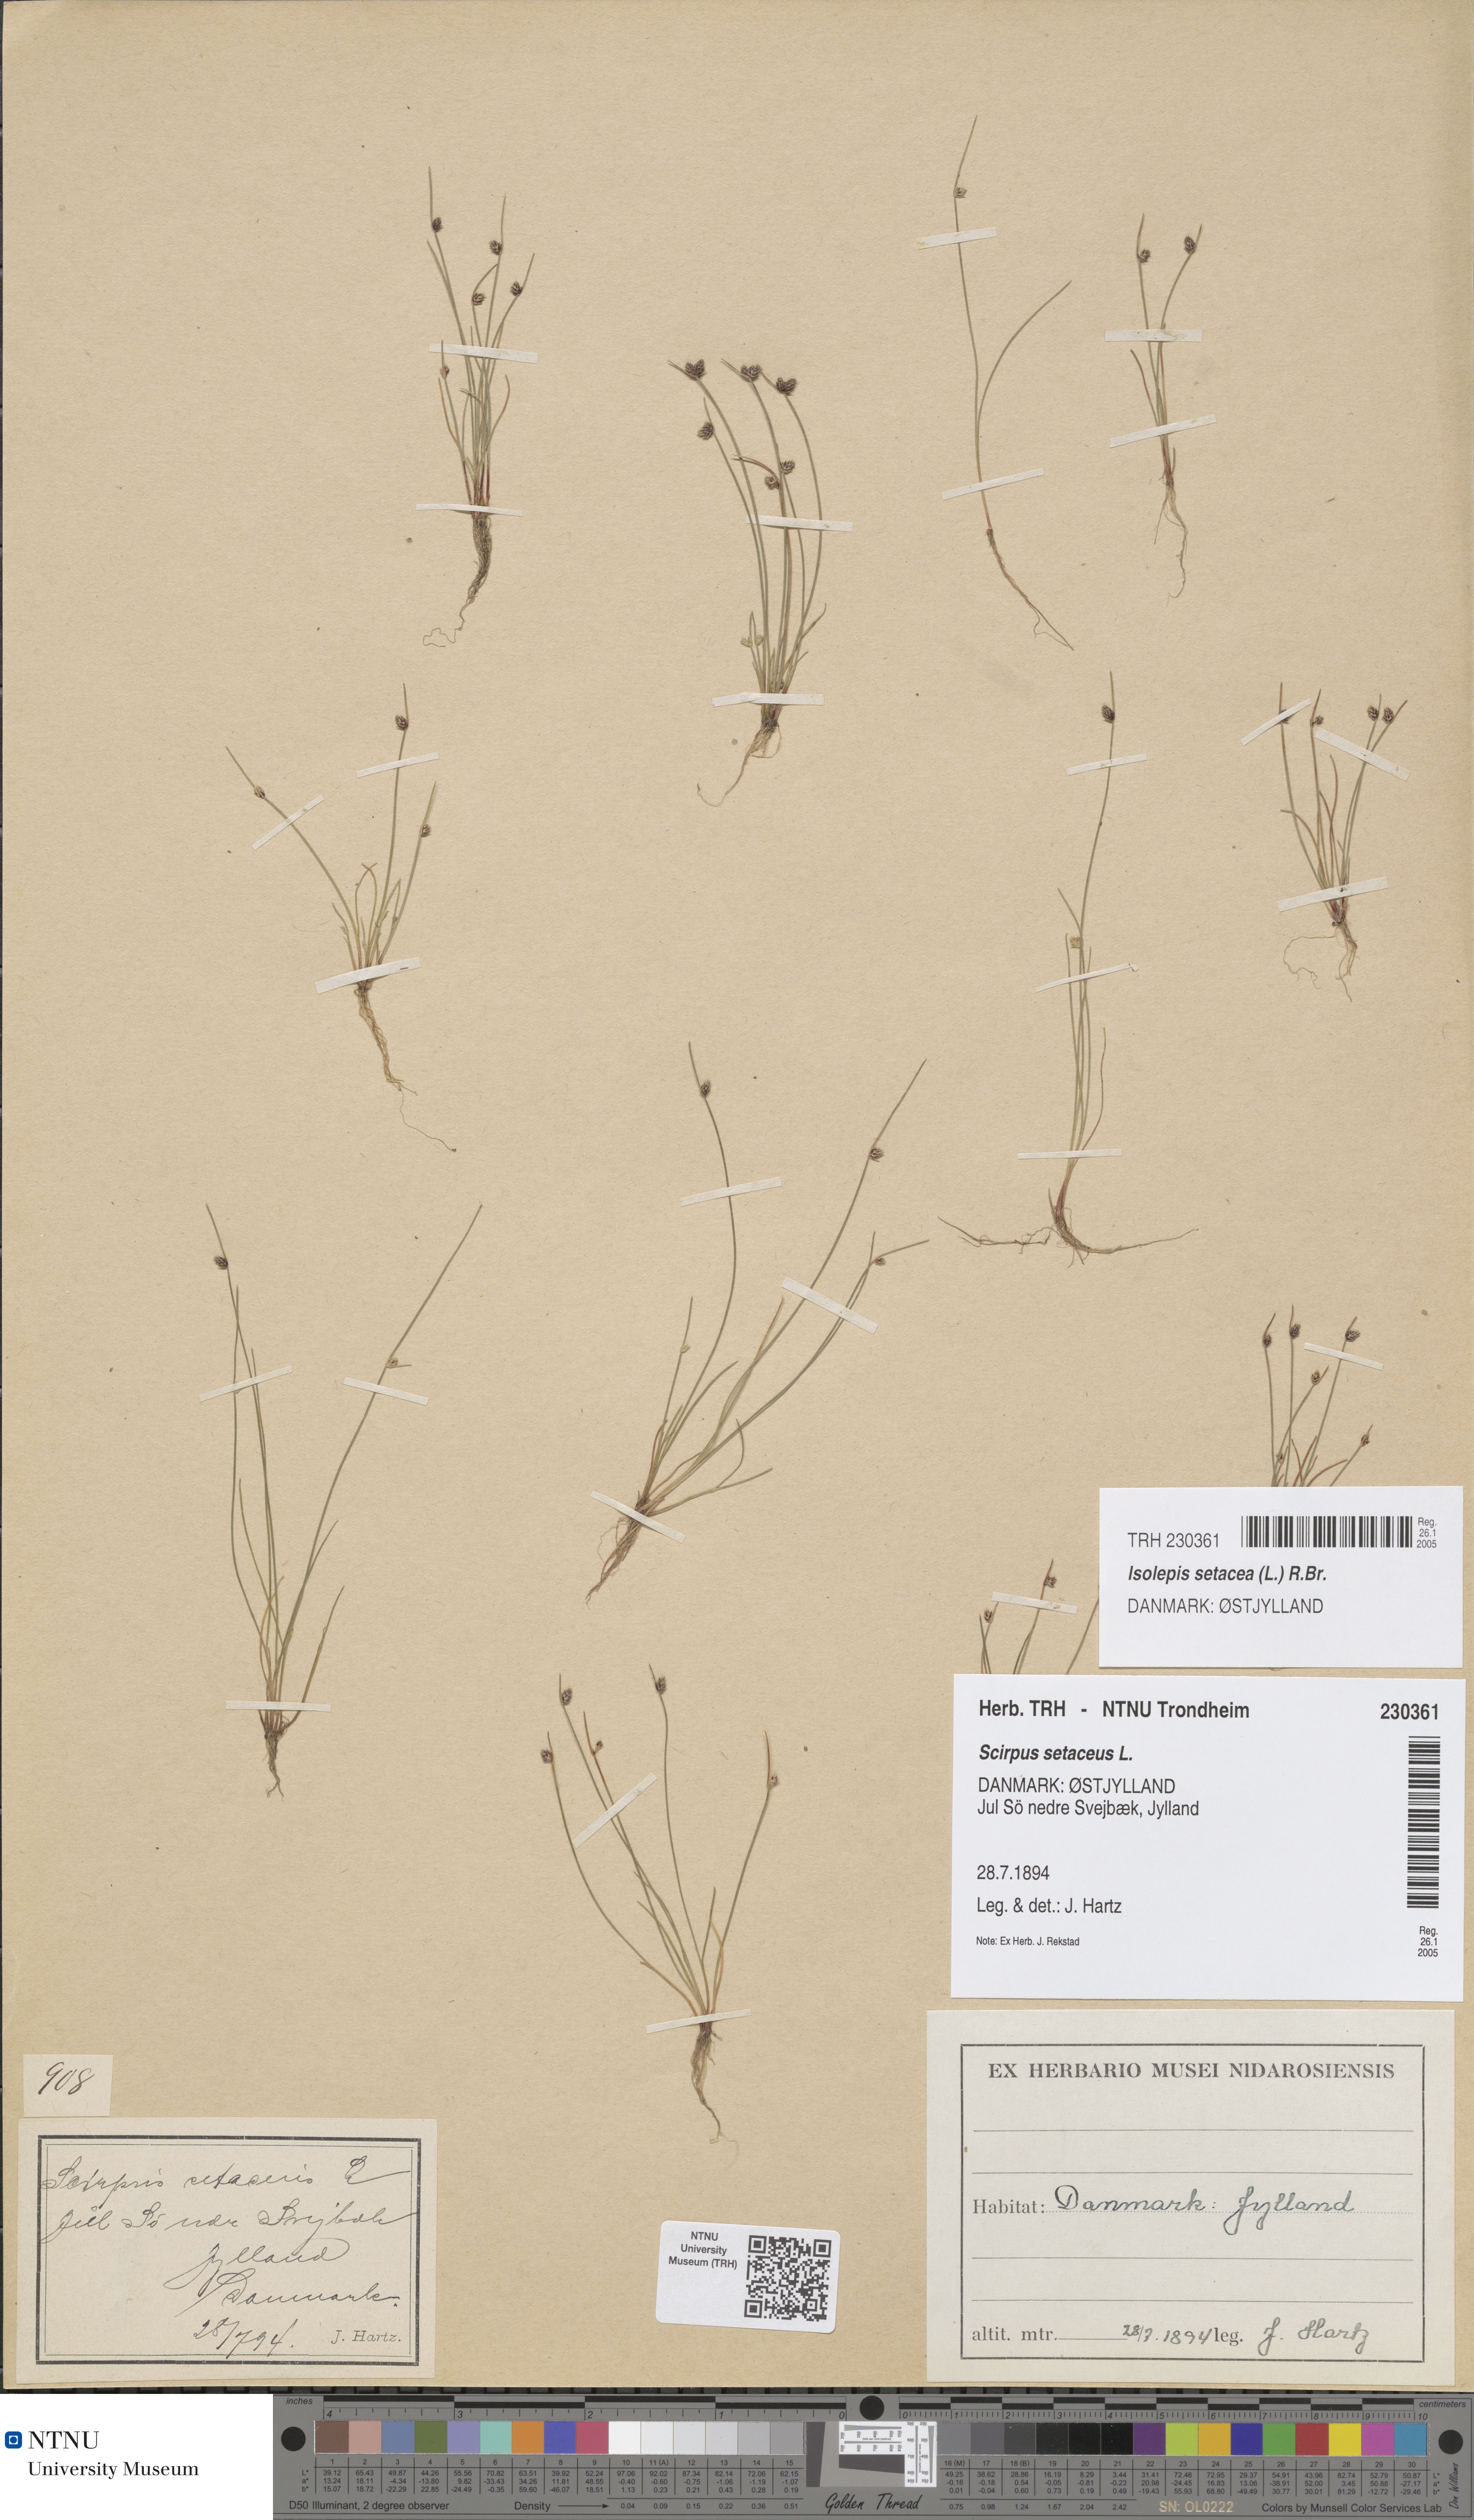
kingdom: Plantae
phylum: Tracheophyta
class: Liliopsida
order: Poales
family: Cyperaceae
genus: Isolepis
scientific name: Isolepis setacea
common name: Bristle club-rush
